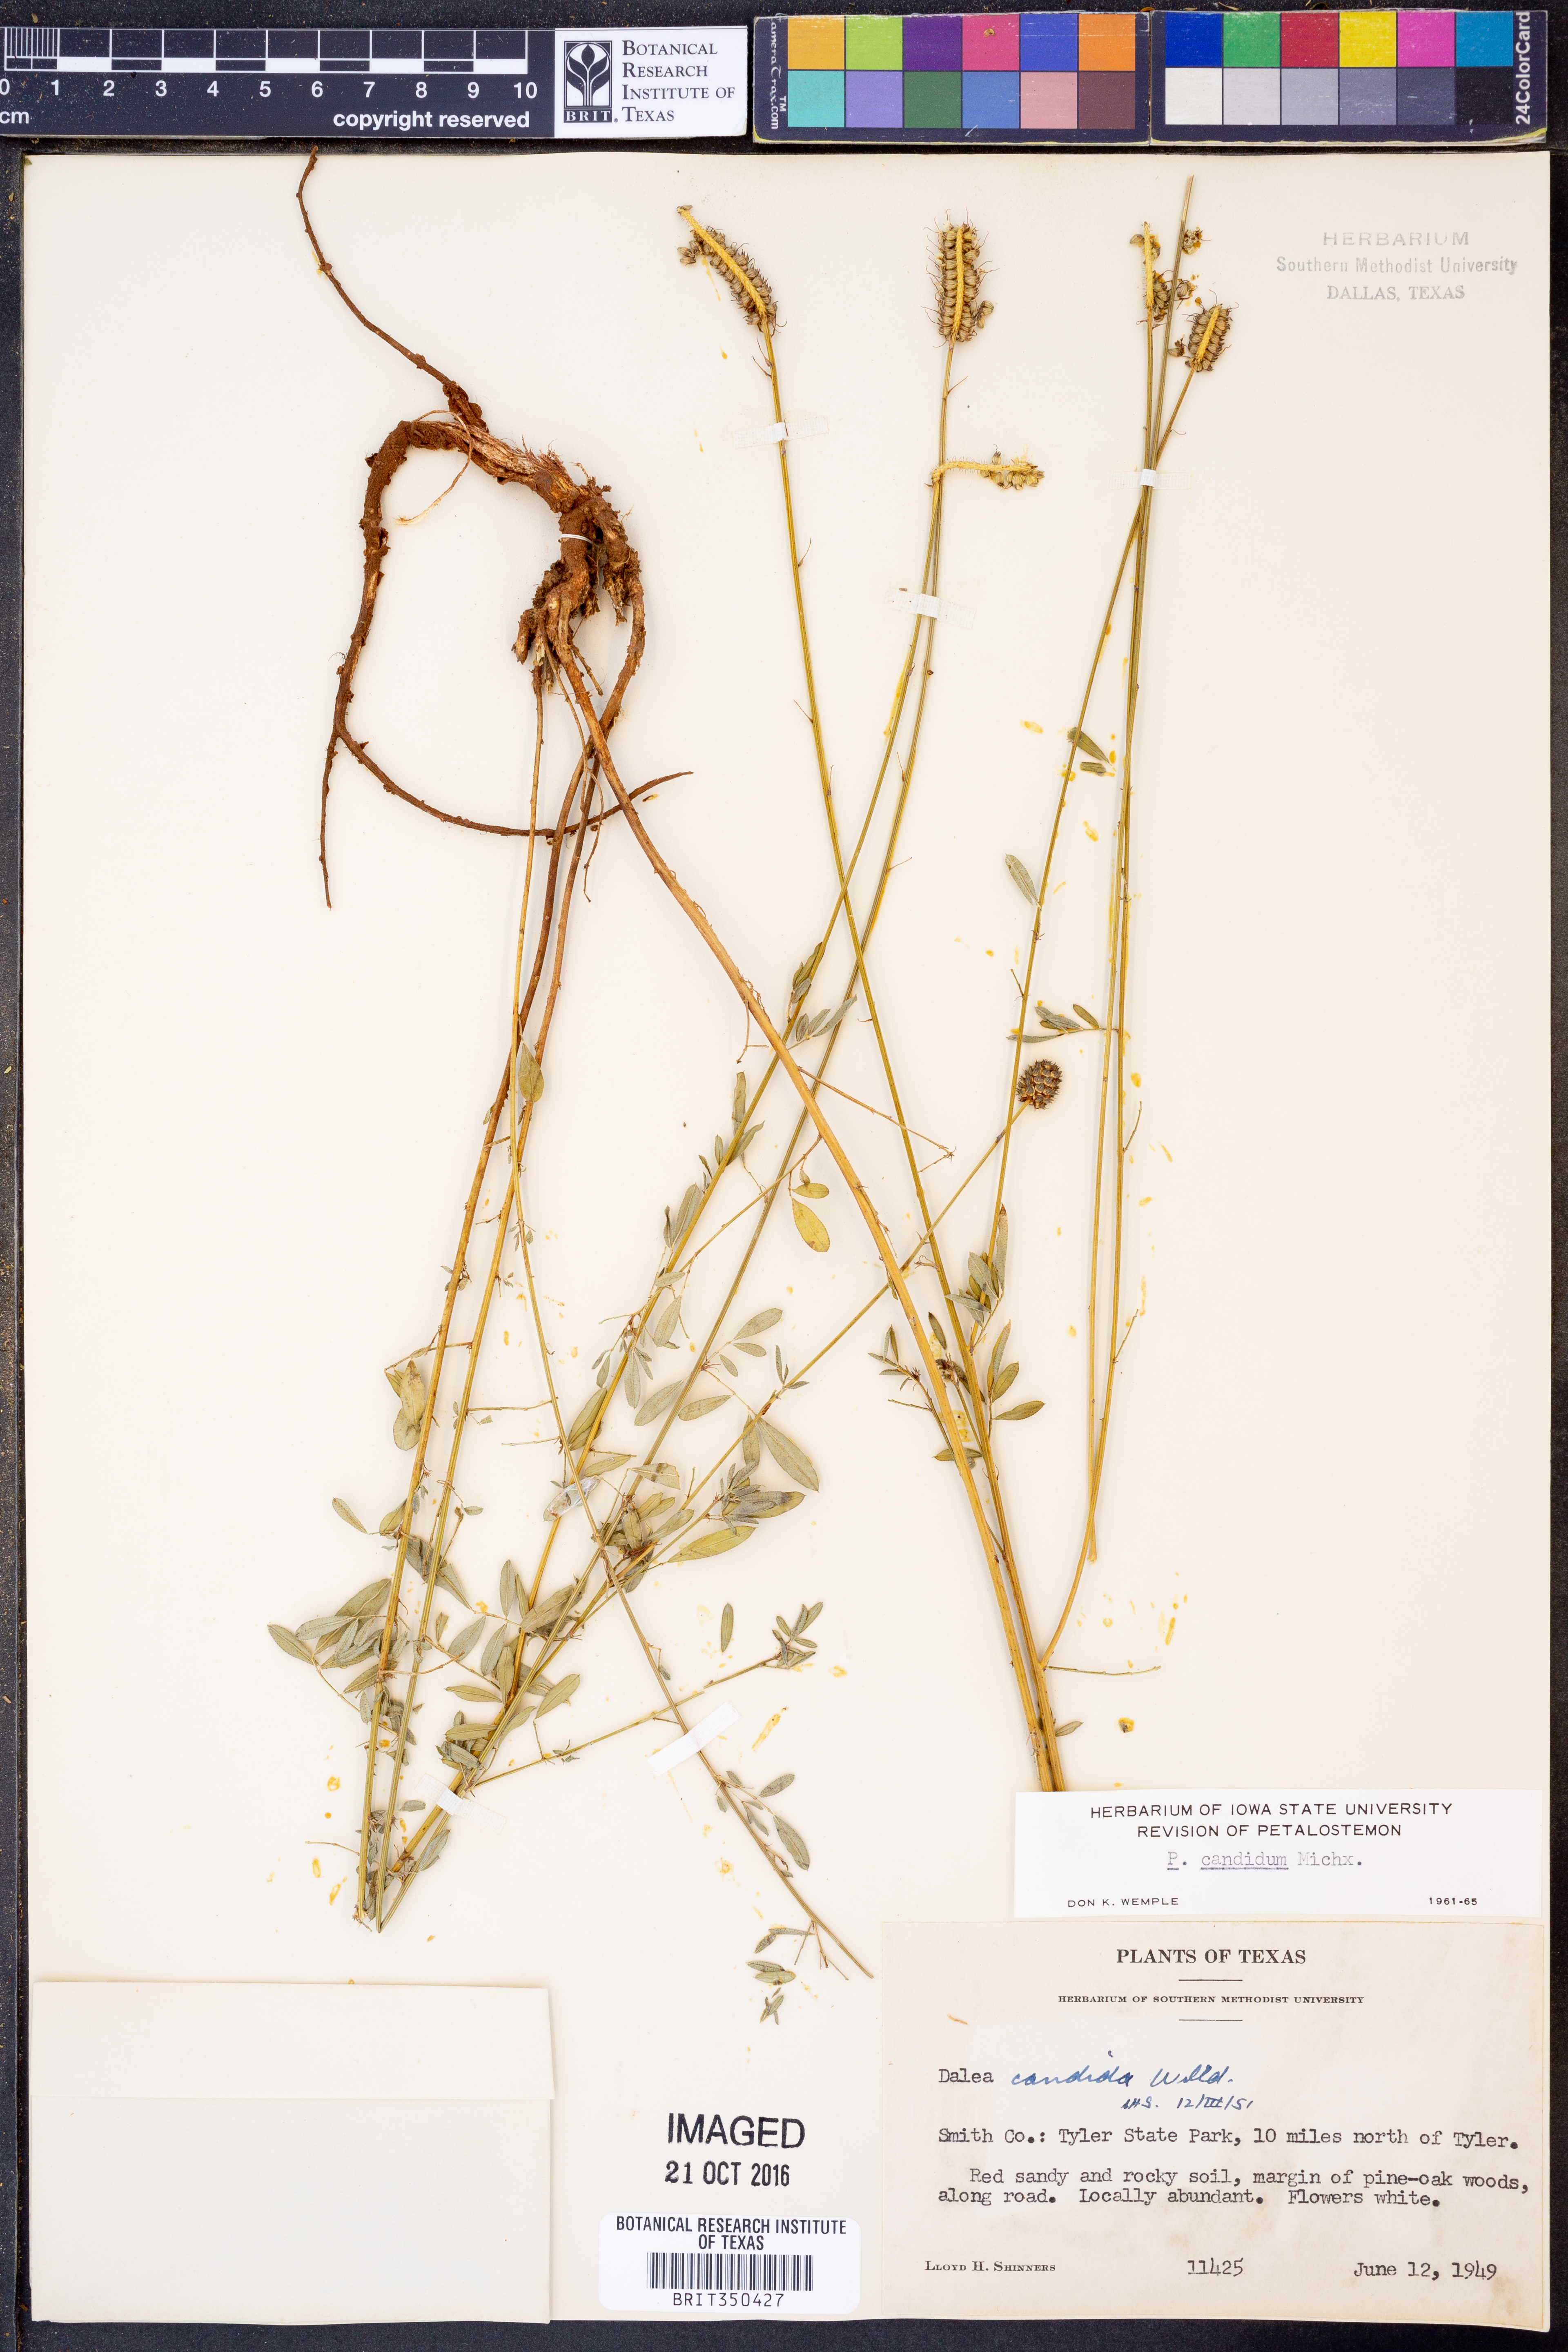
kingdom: Plantae
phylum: Tracheophyta
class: Magnoliopsida
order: Fabales
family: Fabaceae
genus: Dalea
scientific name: Dalea candida
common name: White prairie-clover
